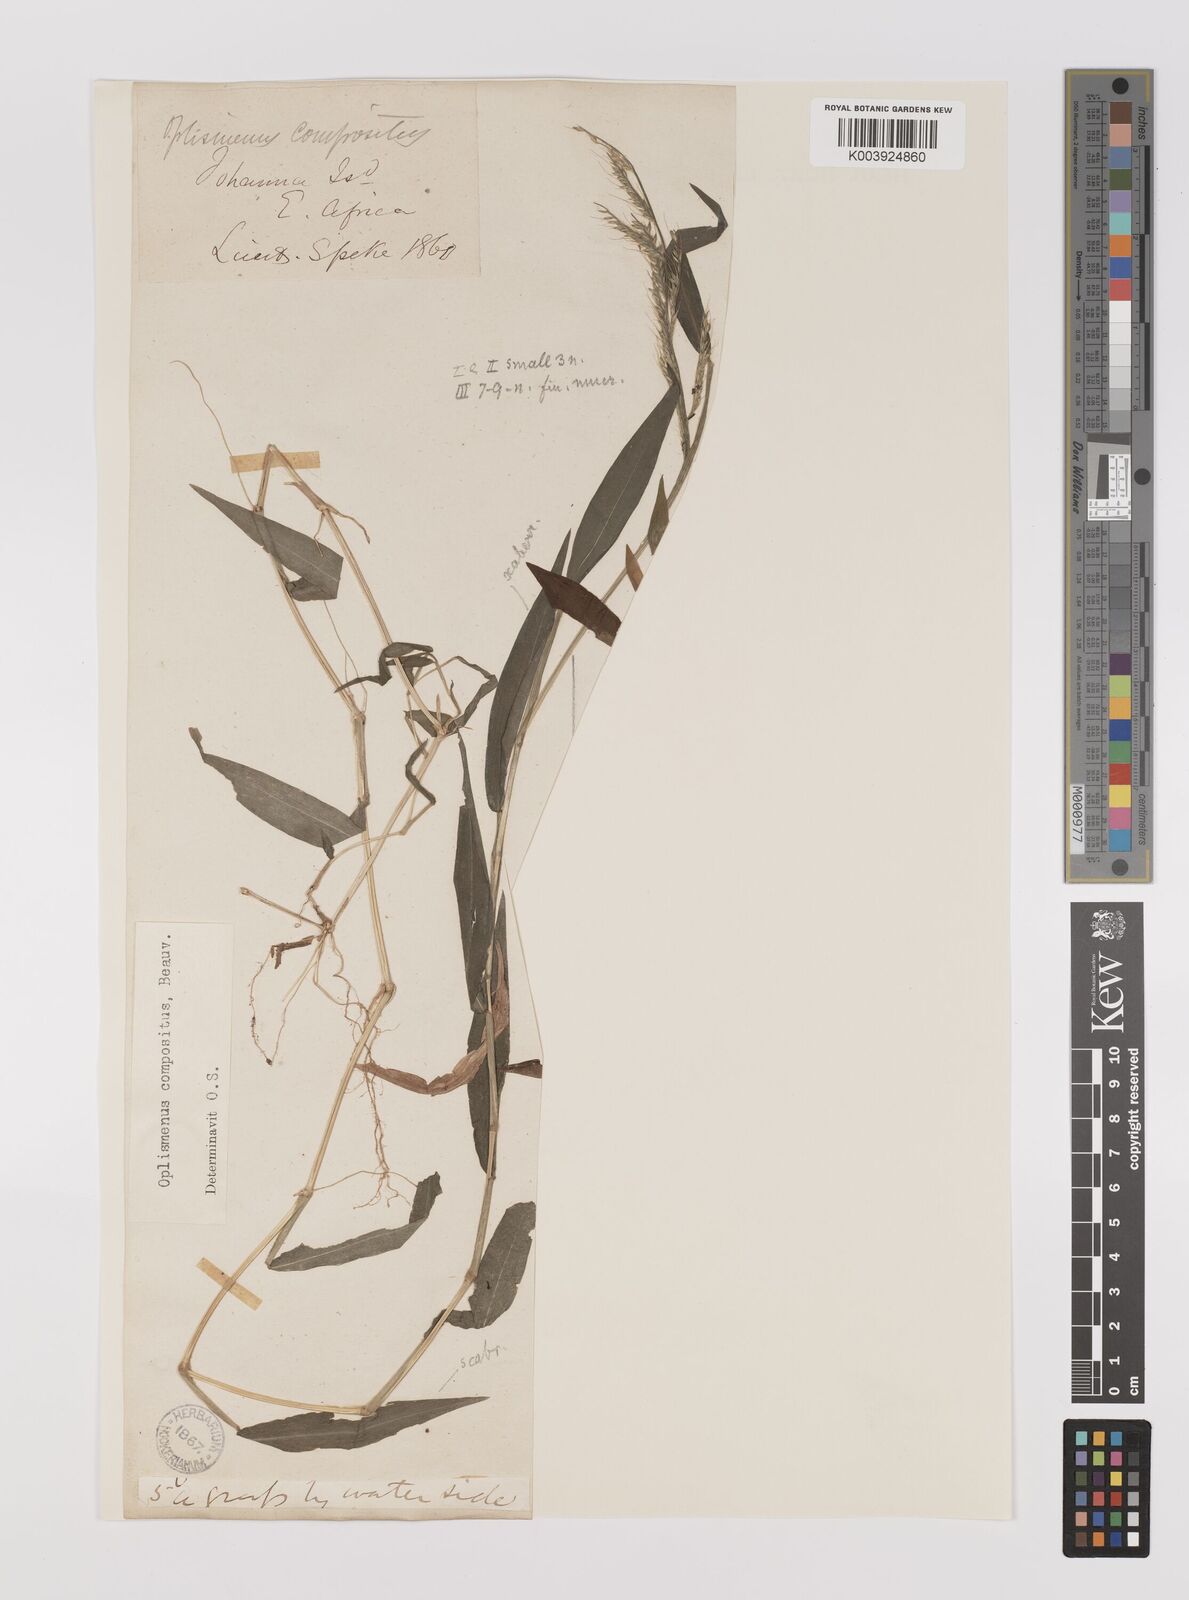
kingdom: Plantae
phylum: Tracheophyta
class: Liliopsida
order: Poales
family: Poaceae
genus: Oplismenus
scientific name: Oplismenus compositus
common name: Running mountain grass
